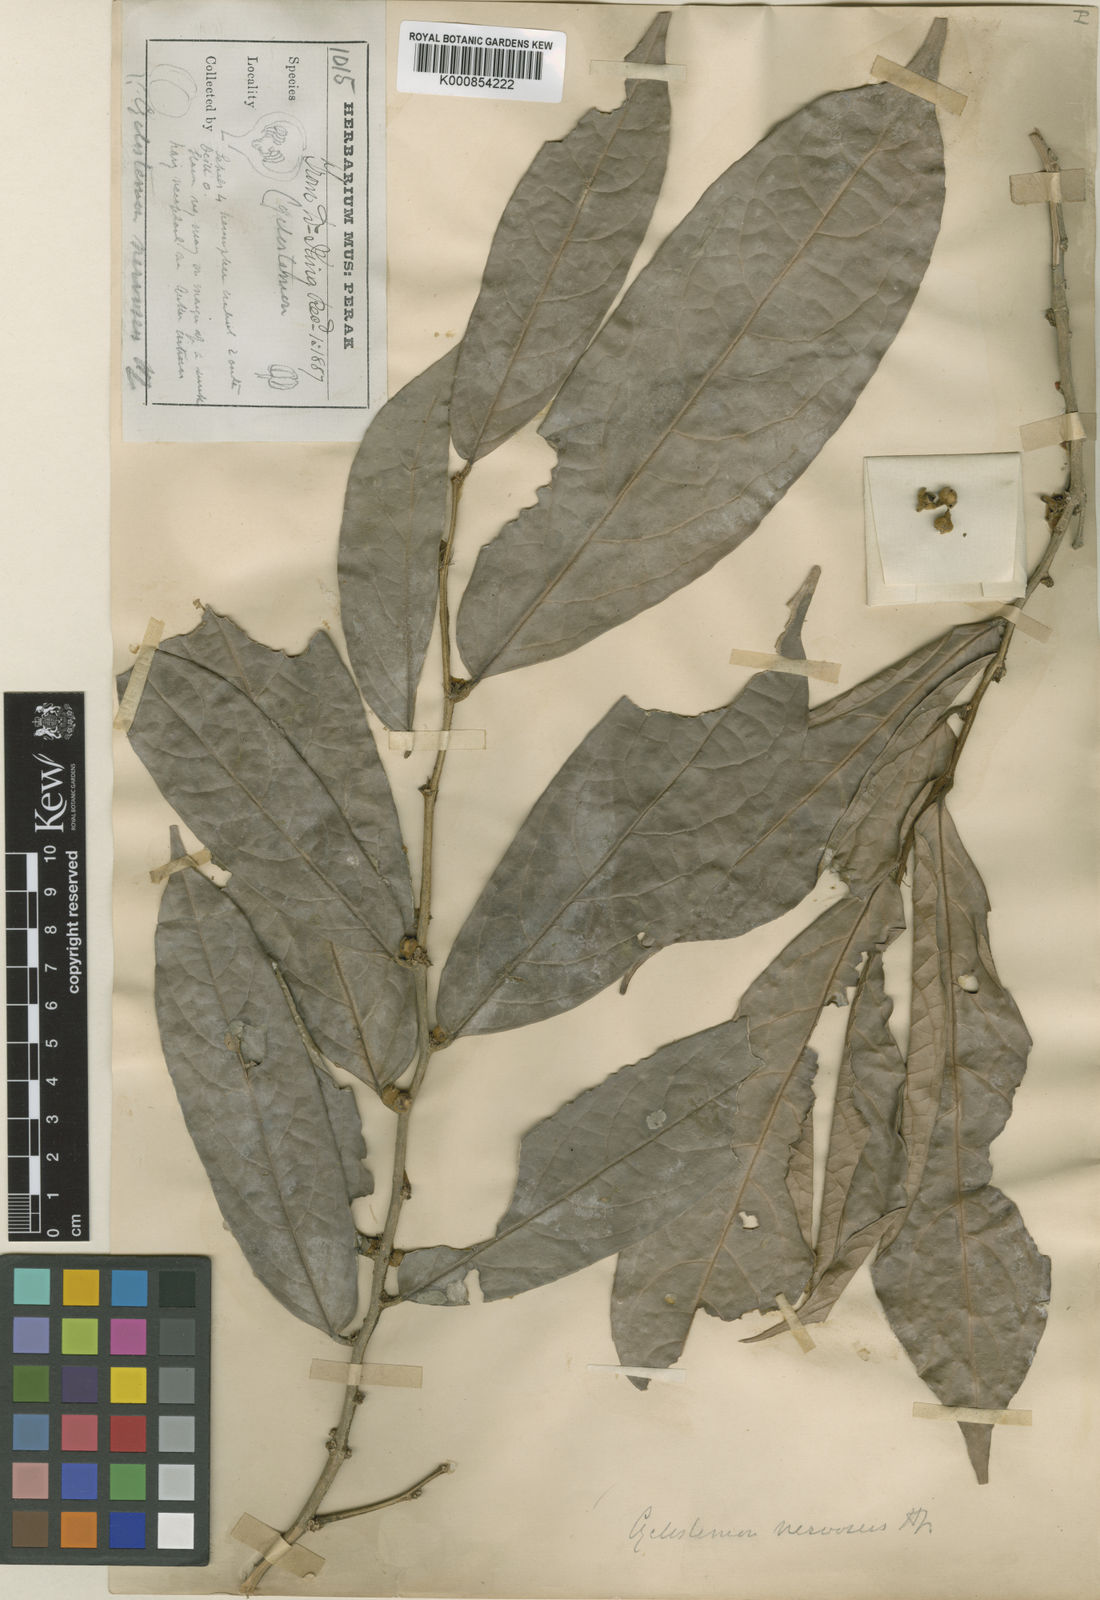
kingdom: Plantae
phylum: Tracheophyta
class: Magnoliopsida
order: Malpighiales
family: Putranjivaceae
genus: Drypetes
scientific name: Drypetes nervosa
